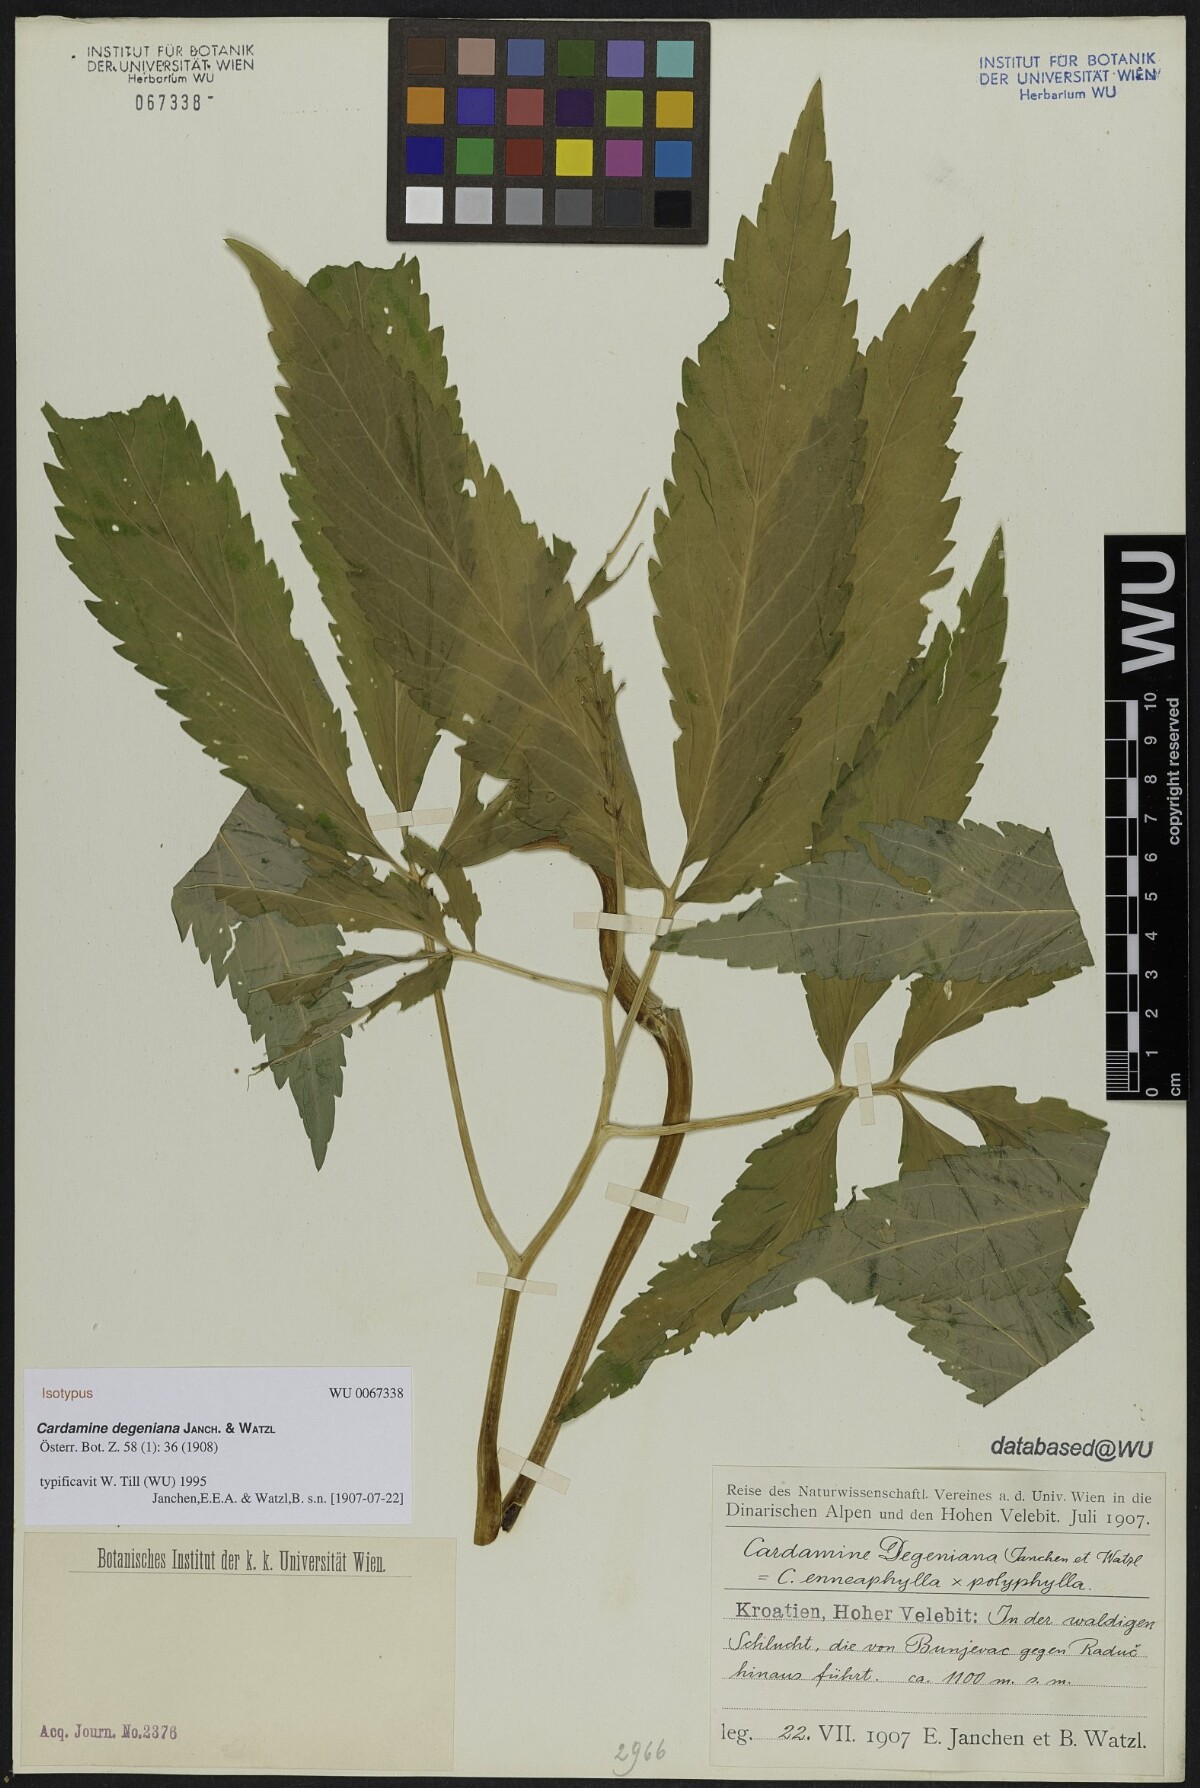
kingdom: Plantae
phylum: Tracheophyta
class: Magnoliopsida
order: Brassicales
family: Brassicaceae
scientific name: Brassicaceae
